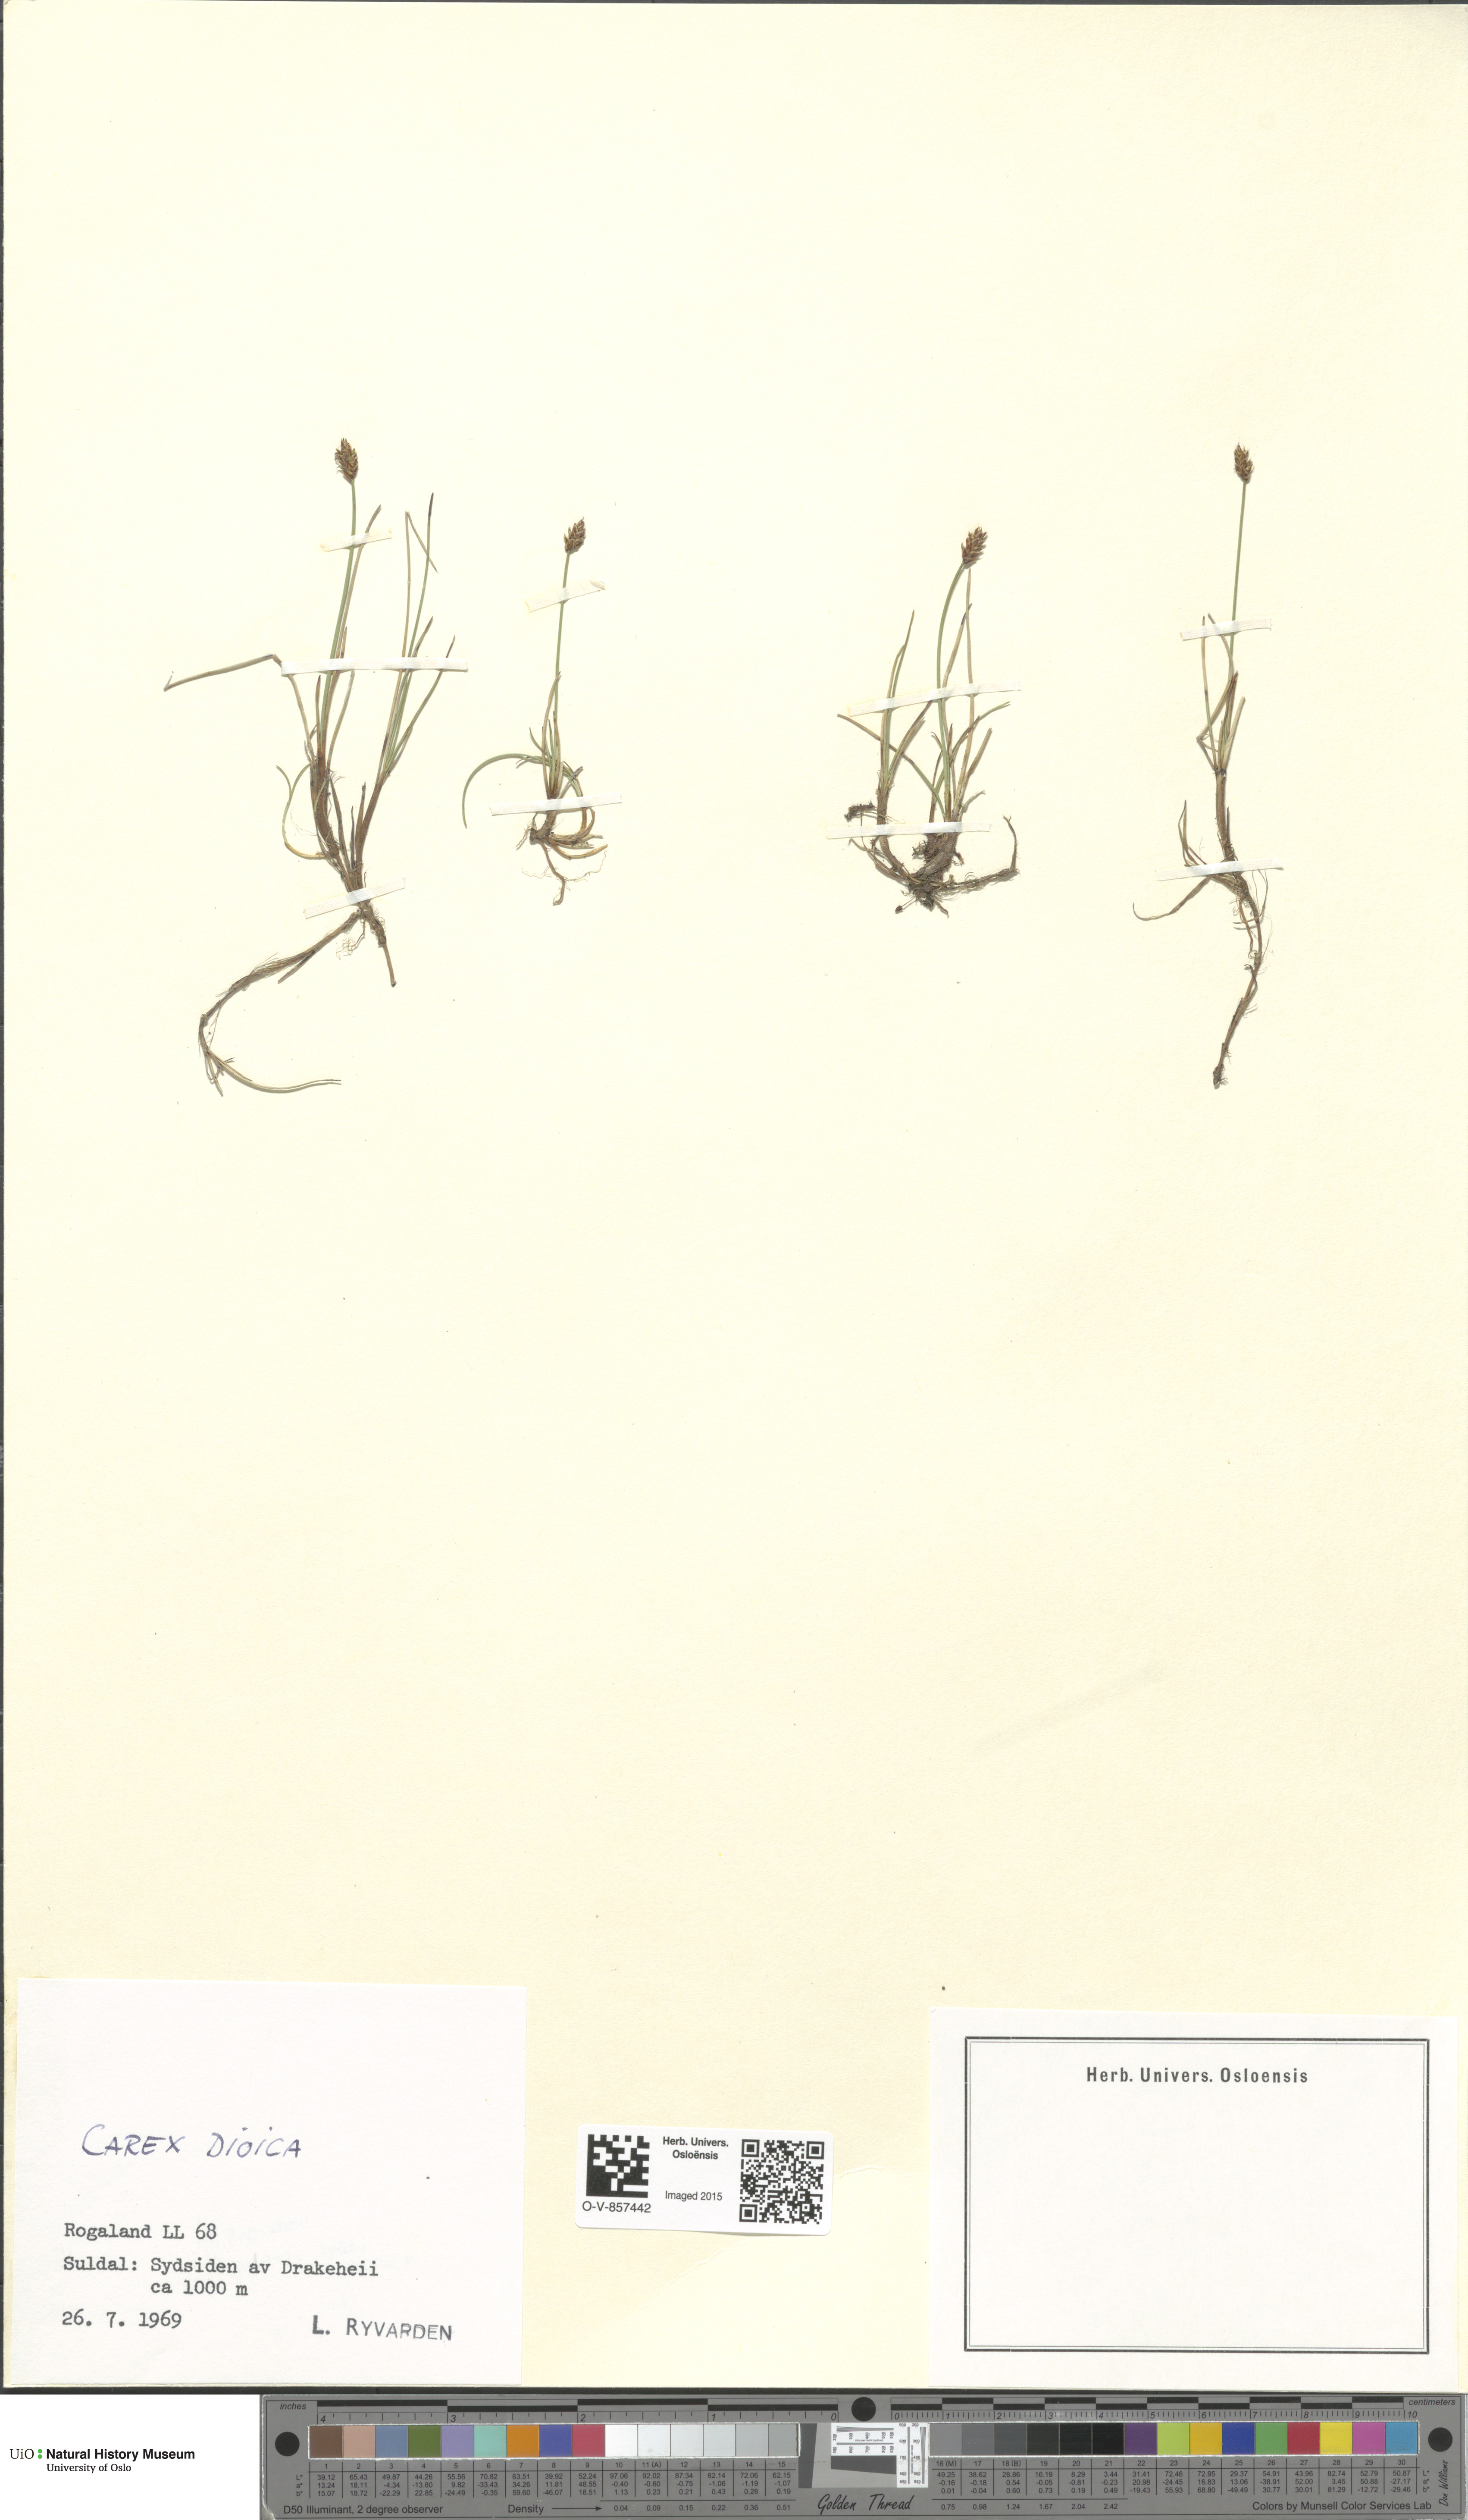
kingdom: Plantae
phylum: Tracheophyta
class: Liliopsida
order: Poales
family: Cyperaceae
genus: Carex
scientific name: Carex dioica
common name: Dioecious sedge
